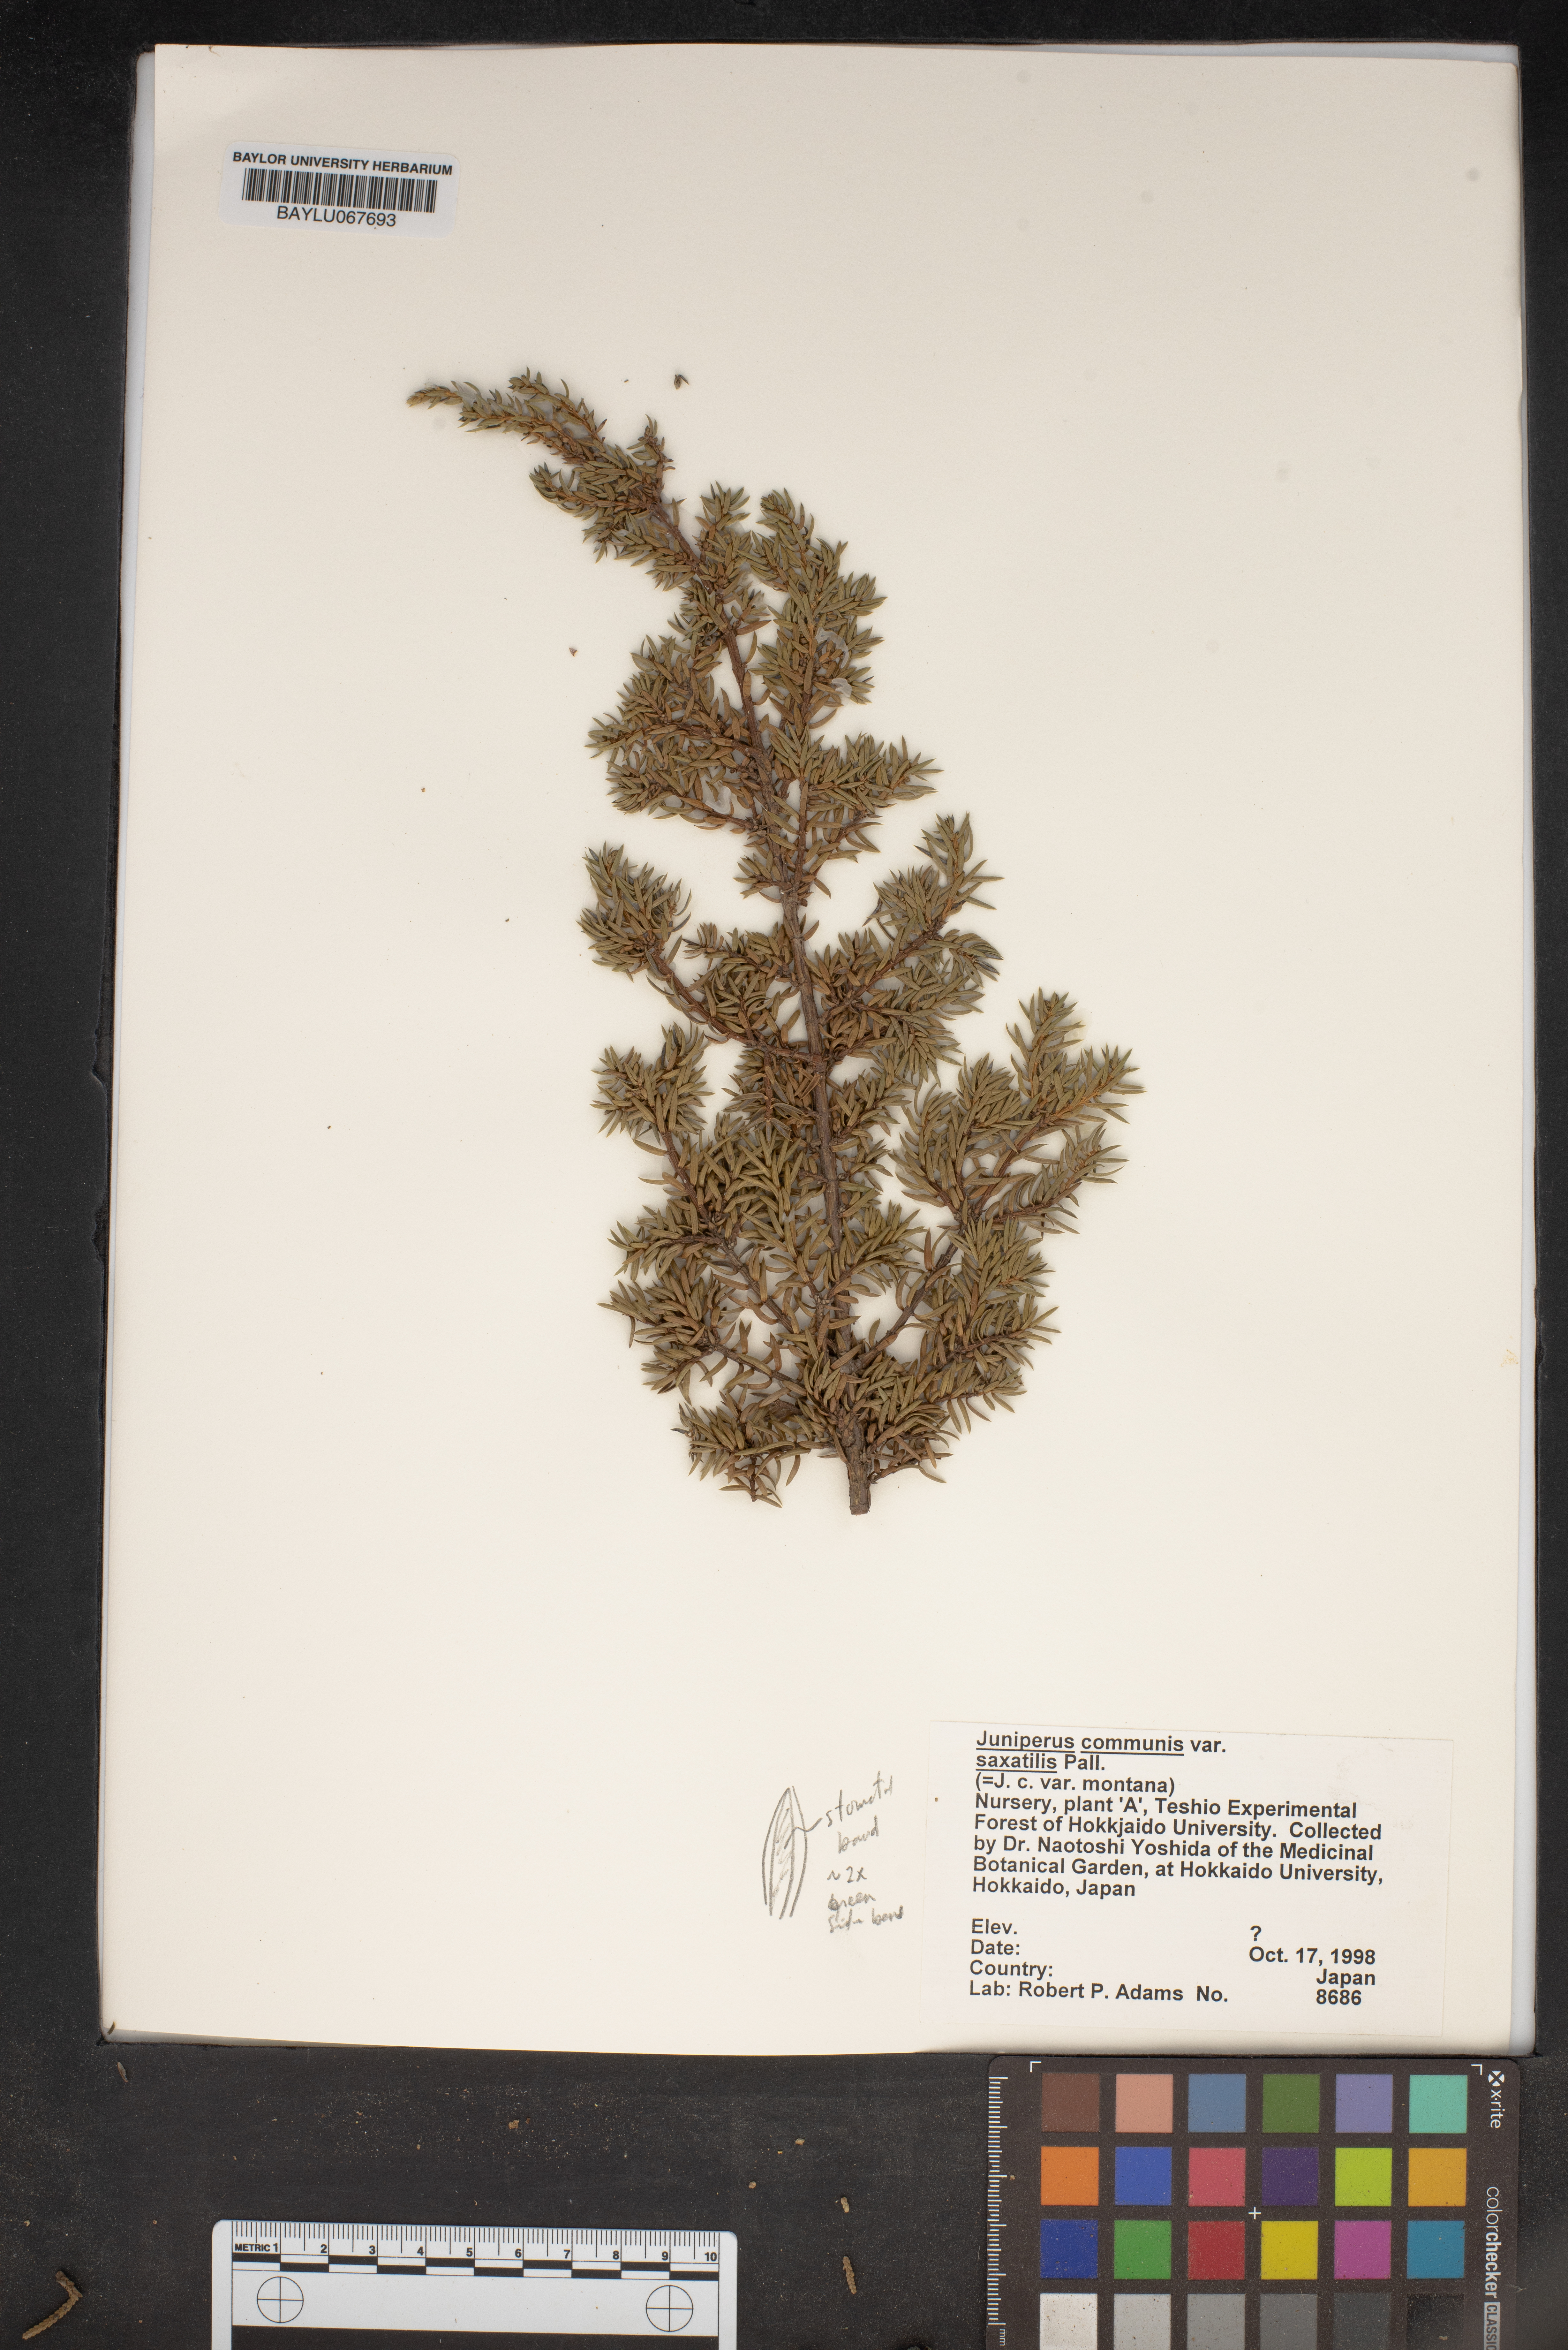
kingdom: Plantae
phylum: Tracheophyta
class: Pinopsida
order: Pinales
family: Cupressaceae
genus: Juniperus
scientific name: Juniperus communis
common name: Common juniper
